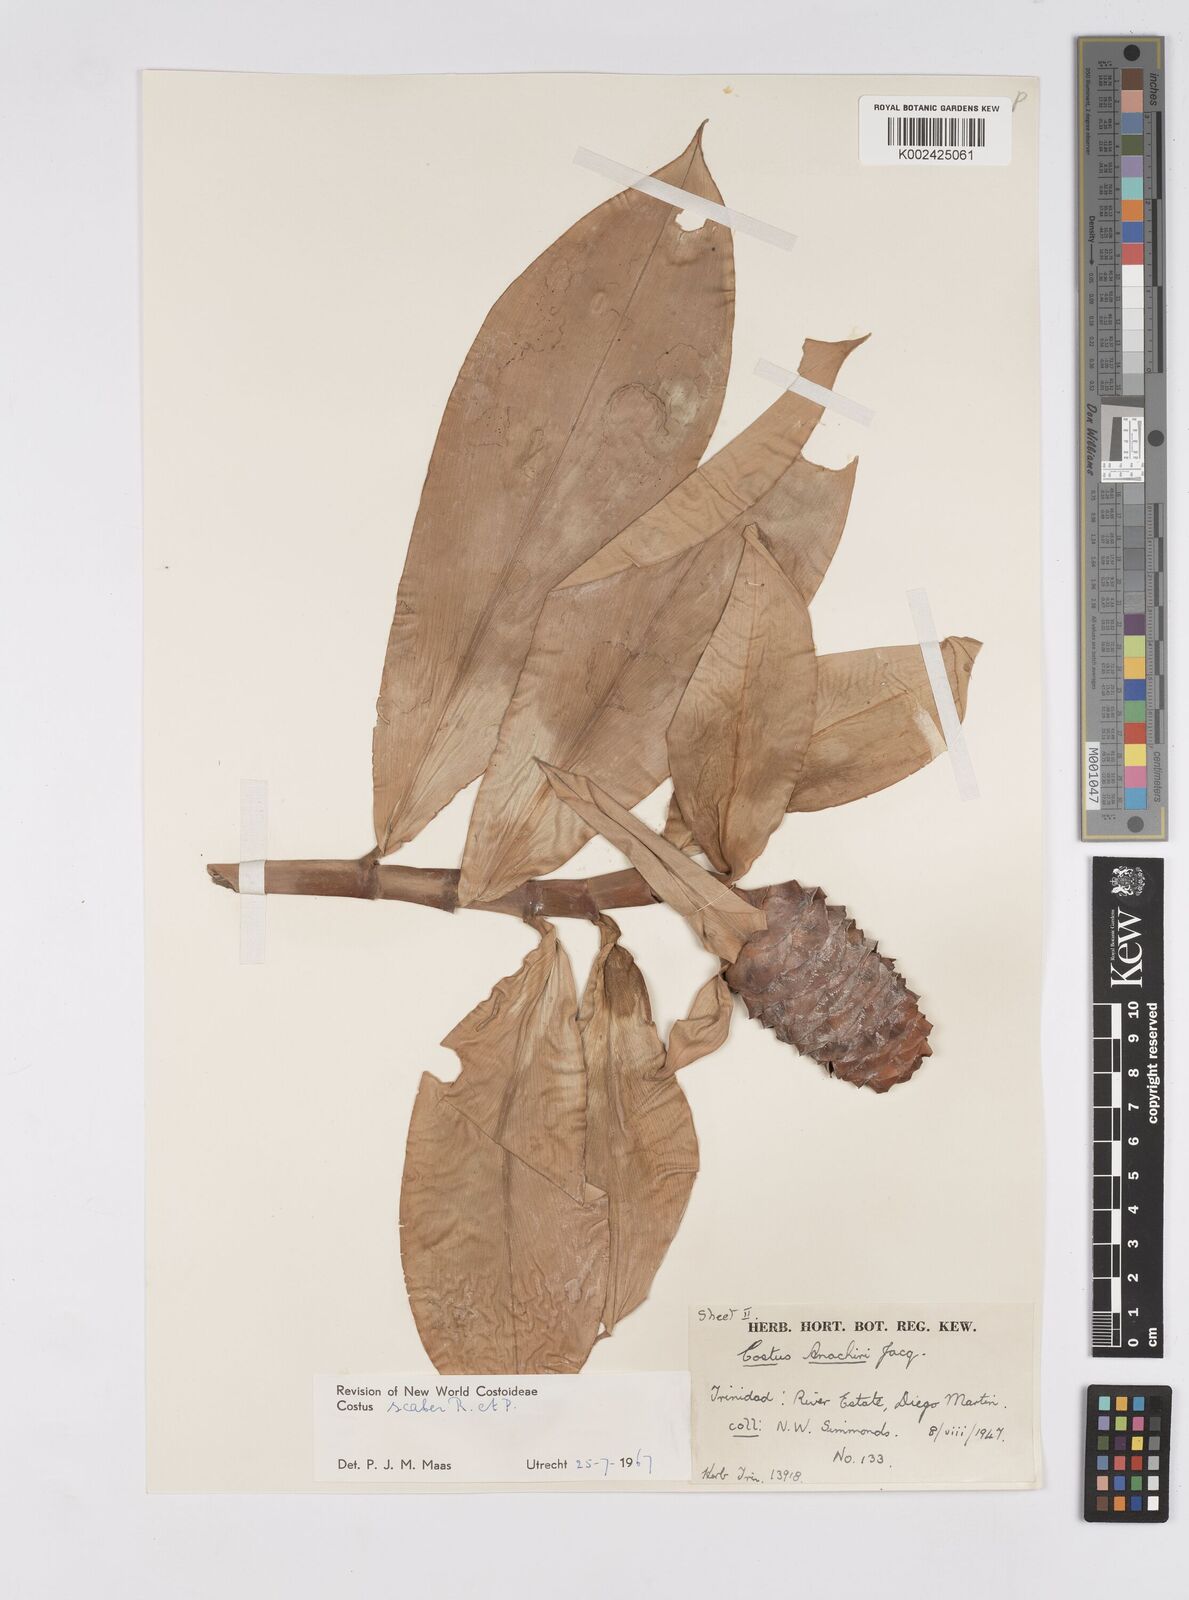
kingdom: Plantae
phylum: Tracheophyta
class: Liliopsida
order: Zingiberales
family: Costaceae
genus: Costus
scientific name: Costus scaber
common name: Spiral head ginger
